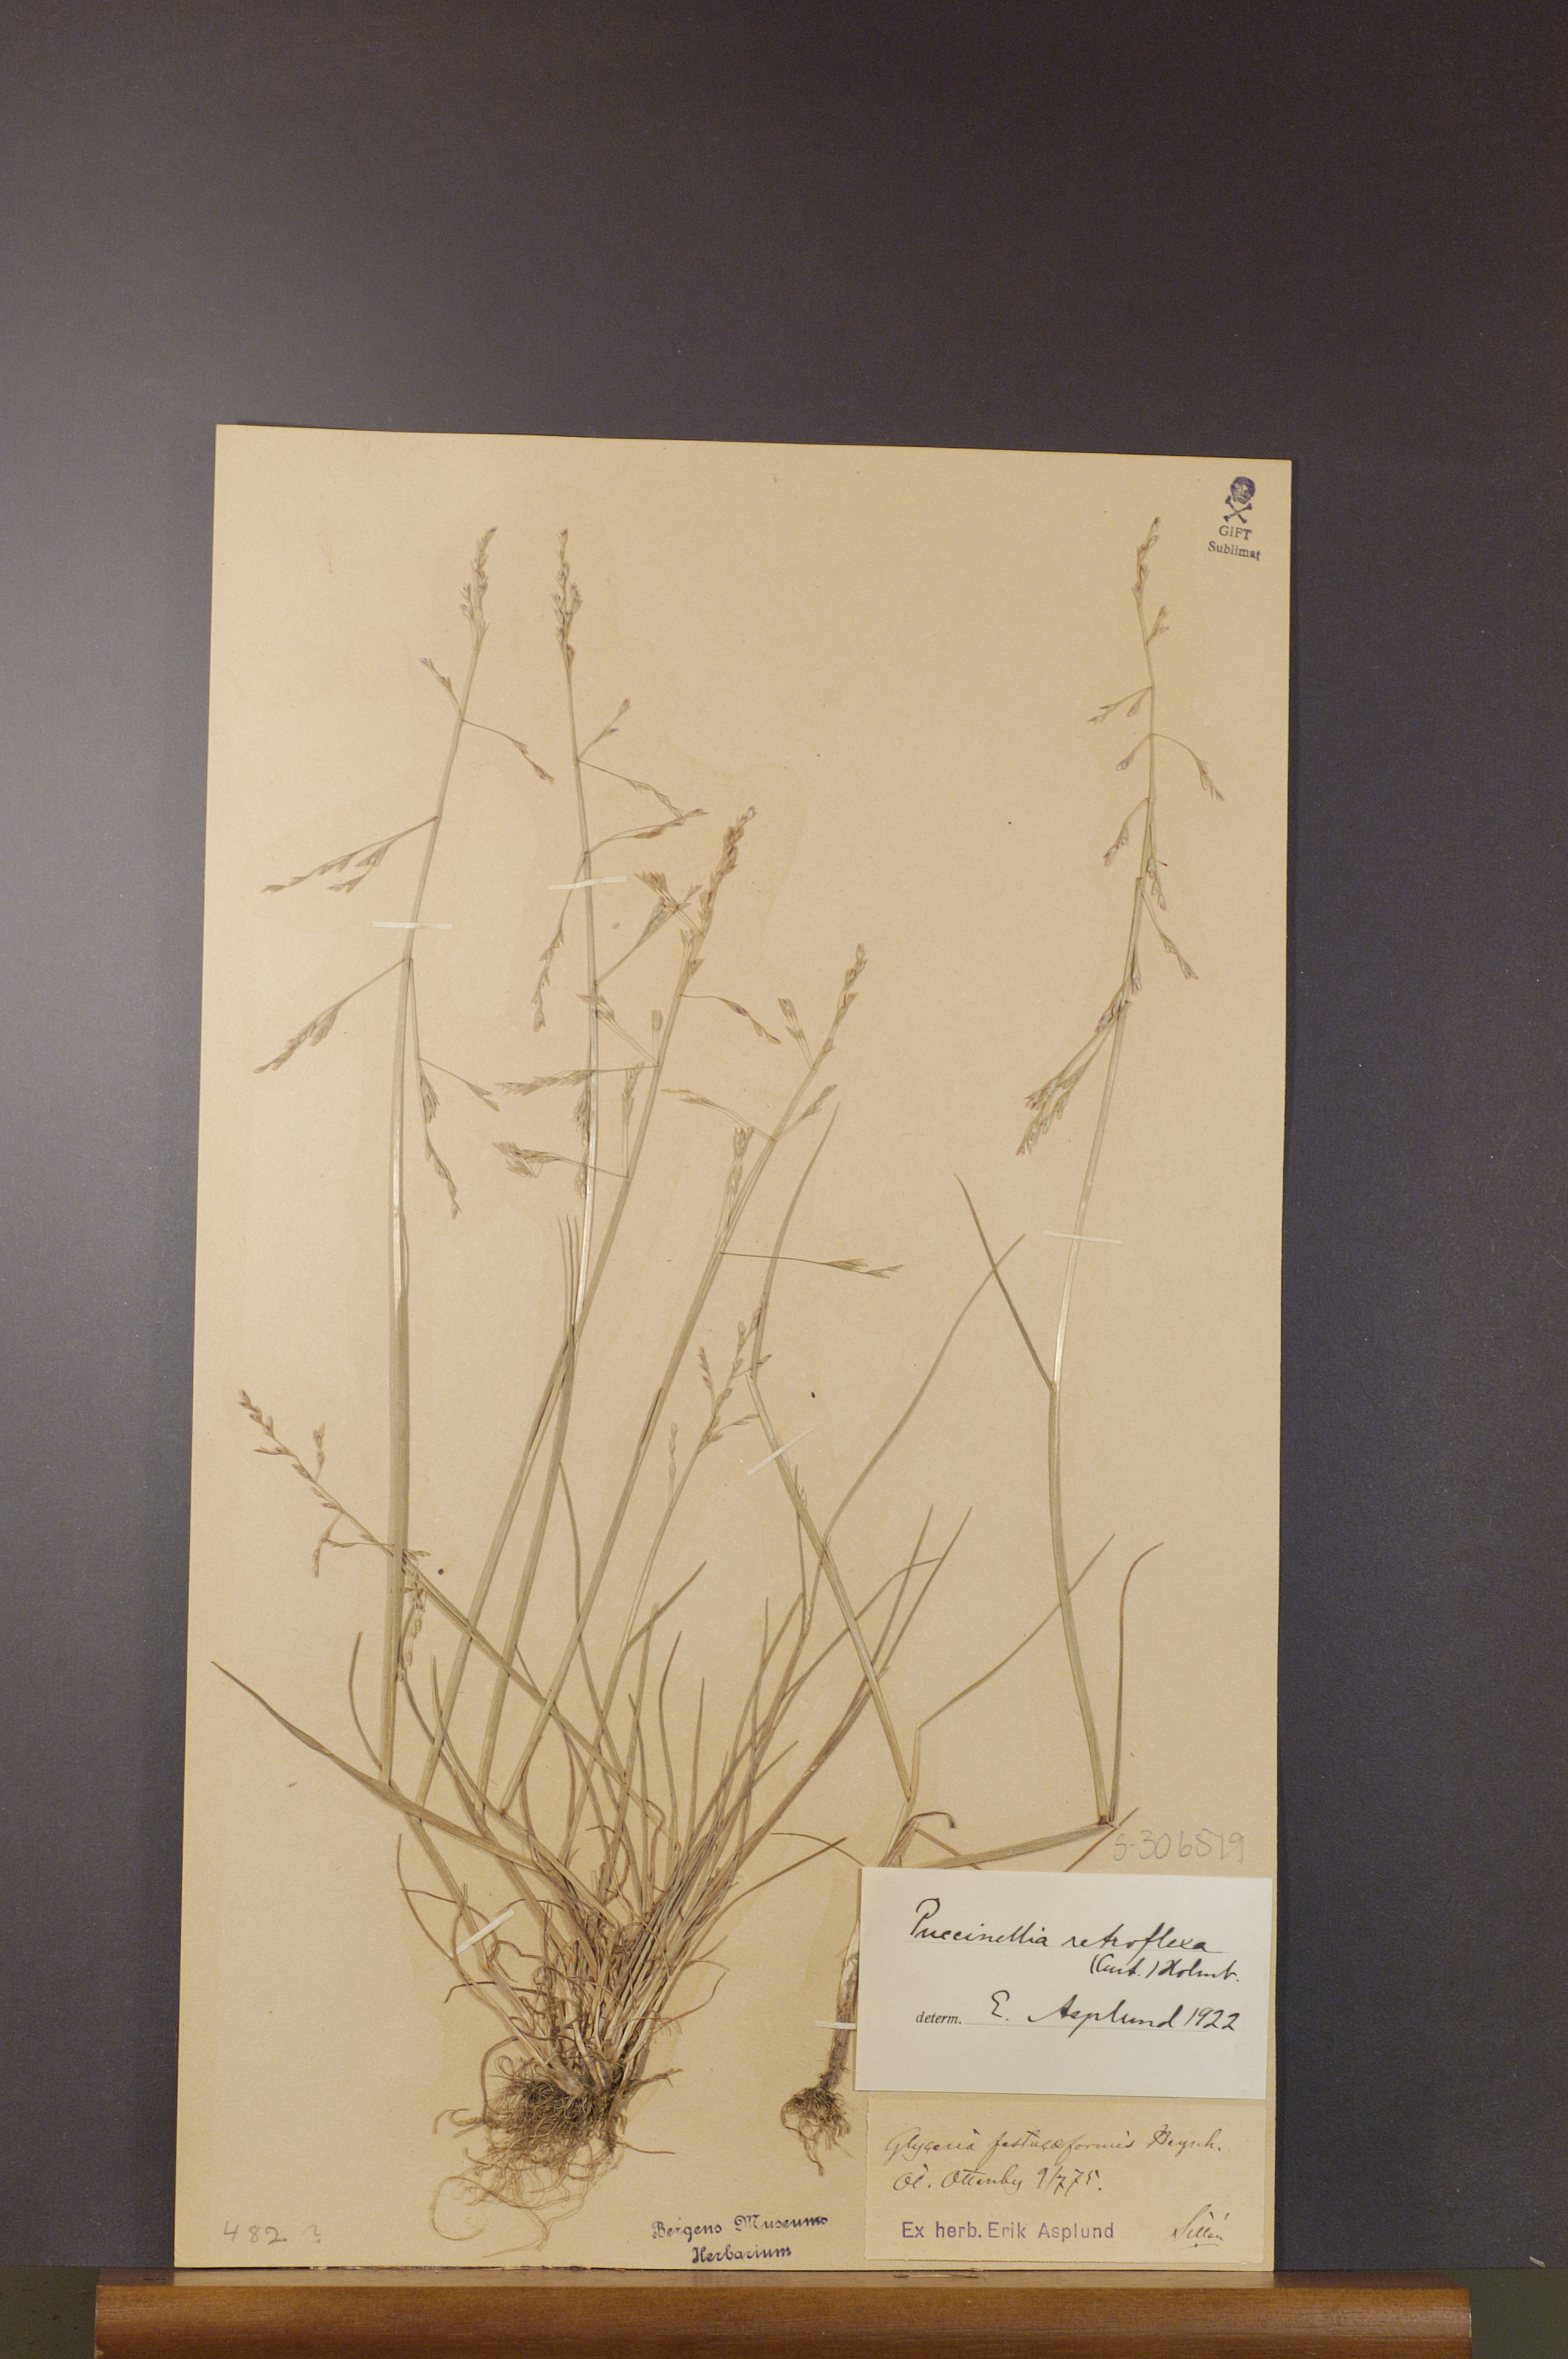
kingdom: Plantae
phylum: Tracheophyta
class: Liliopsida
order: Poales
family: Poaceae
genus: Puccinellia
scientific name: Puccinellia distans
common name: Weeping alkaligrass
